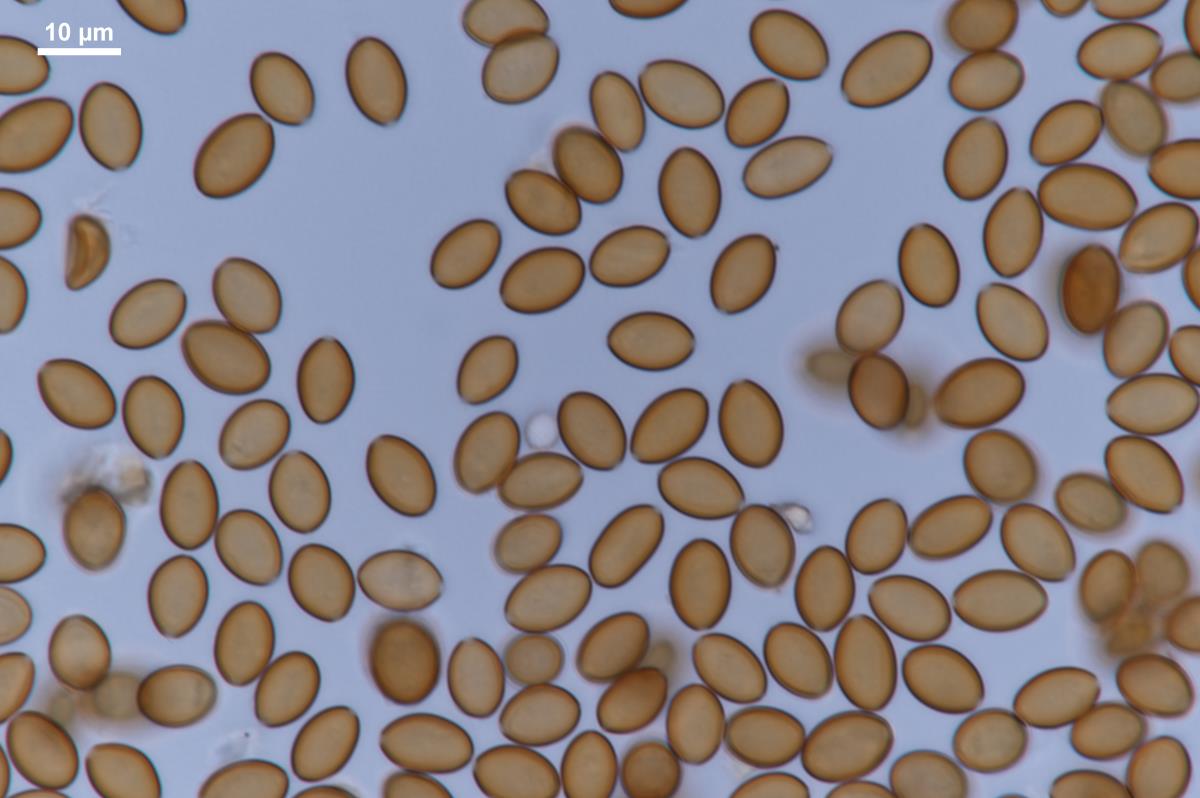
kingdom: Fungi
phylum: Basidiomycota
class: Agaricomycetes
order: Agaricales
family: Strophariaceae
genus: Deconica
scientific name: Deconica baylisiana
